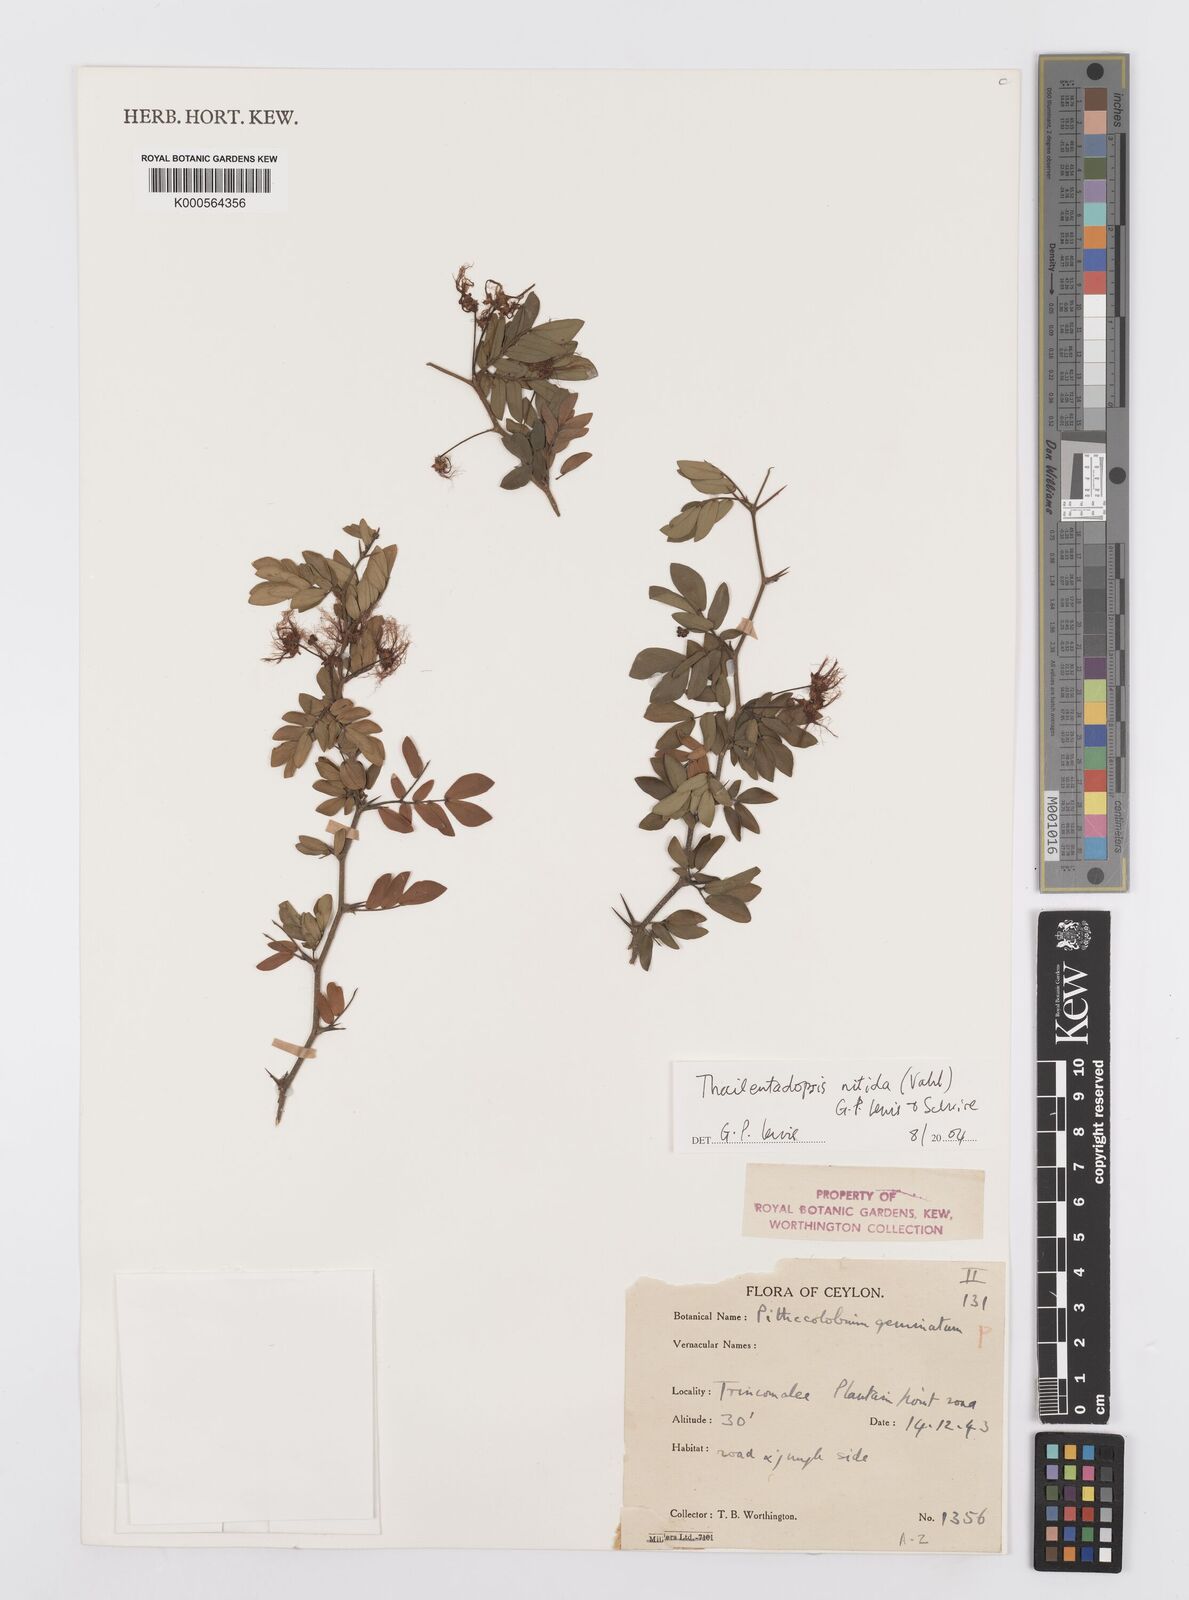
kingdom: Plantae
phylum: Tracheophyta
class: Magnoliopsida
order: Fabales
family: Fabaceae
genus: Thailentadopsis
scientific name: Thailentadopsis nitida
